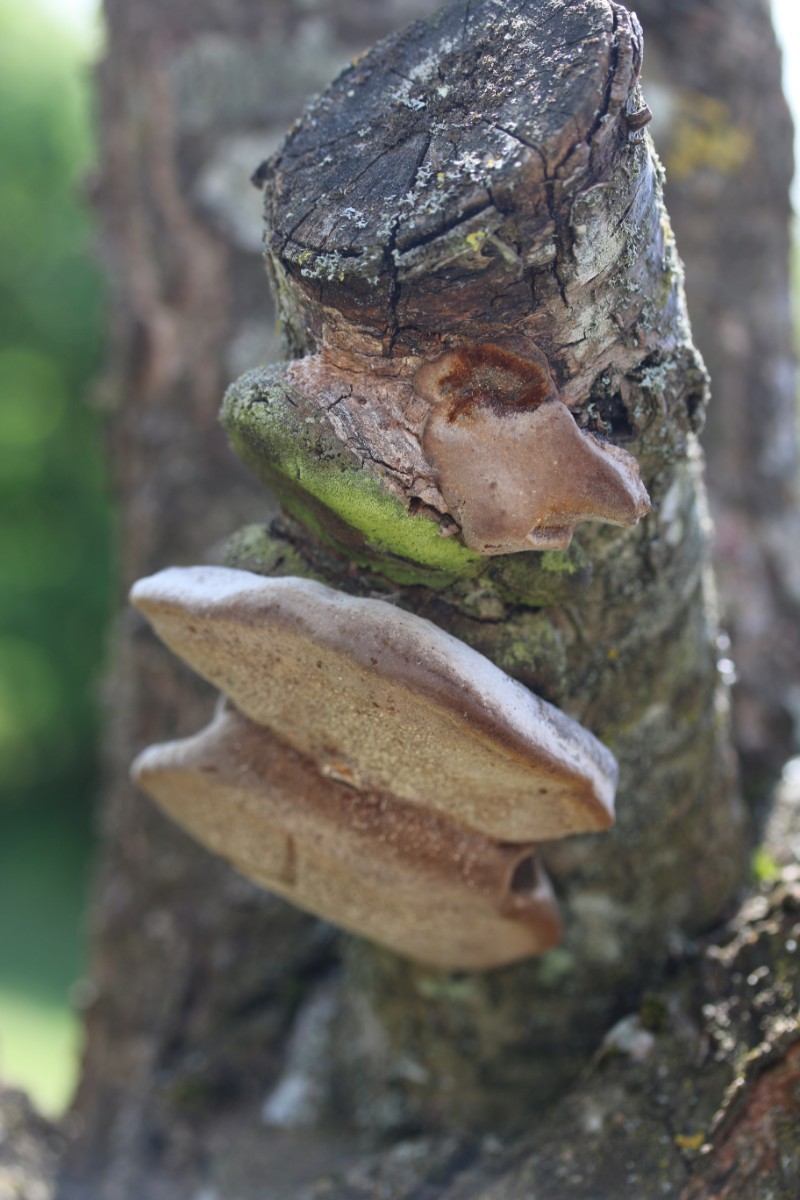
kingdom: Fungi
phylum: Basidiomycota
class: Agaricomycetes
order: Hymenochaetales
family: Hymenochaetaceae
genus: Phellinus
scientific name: Phellinus pomaceus
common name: blomme-ildporesvamp
